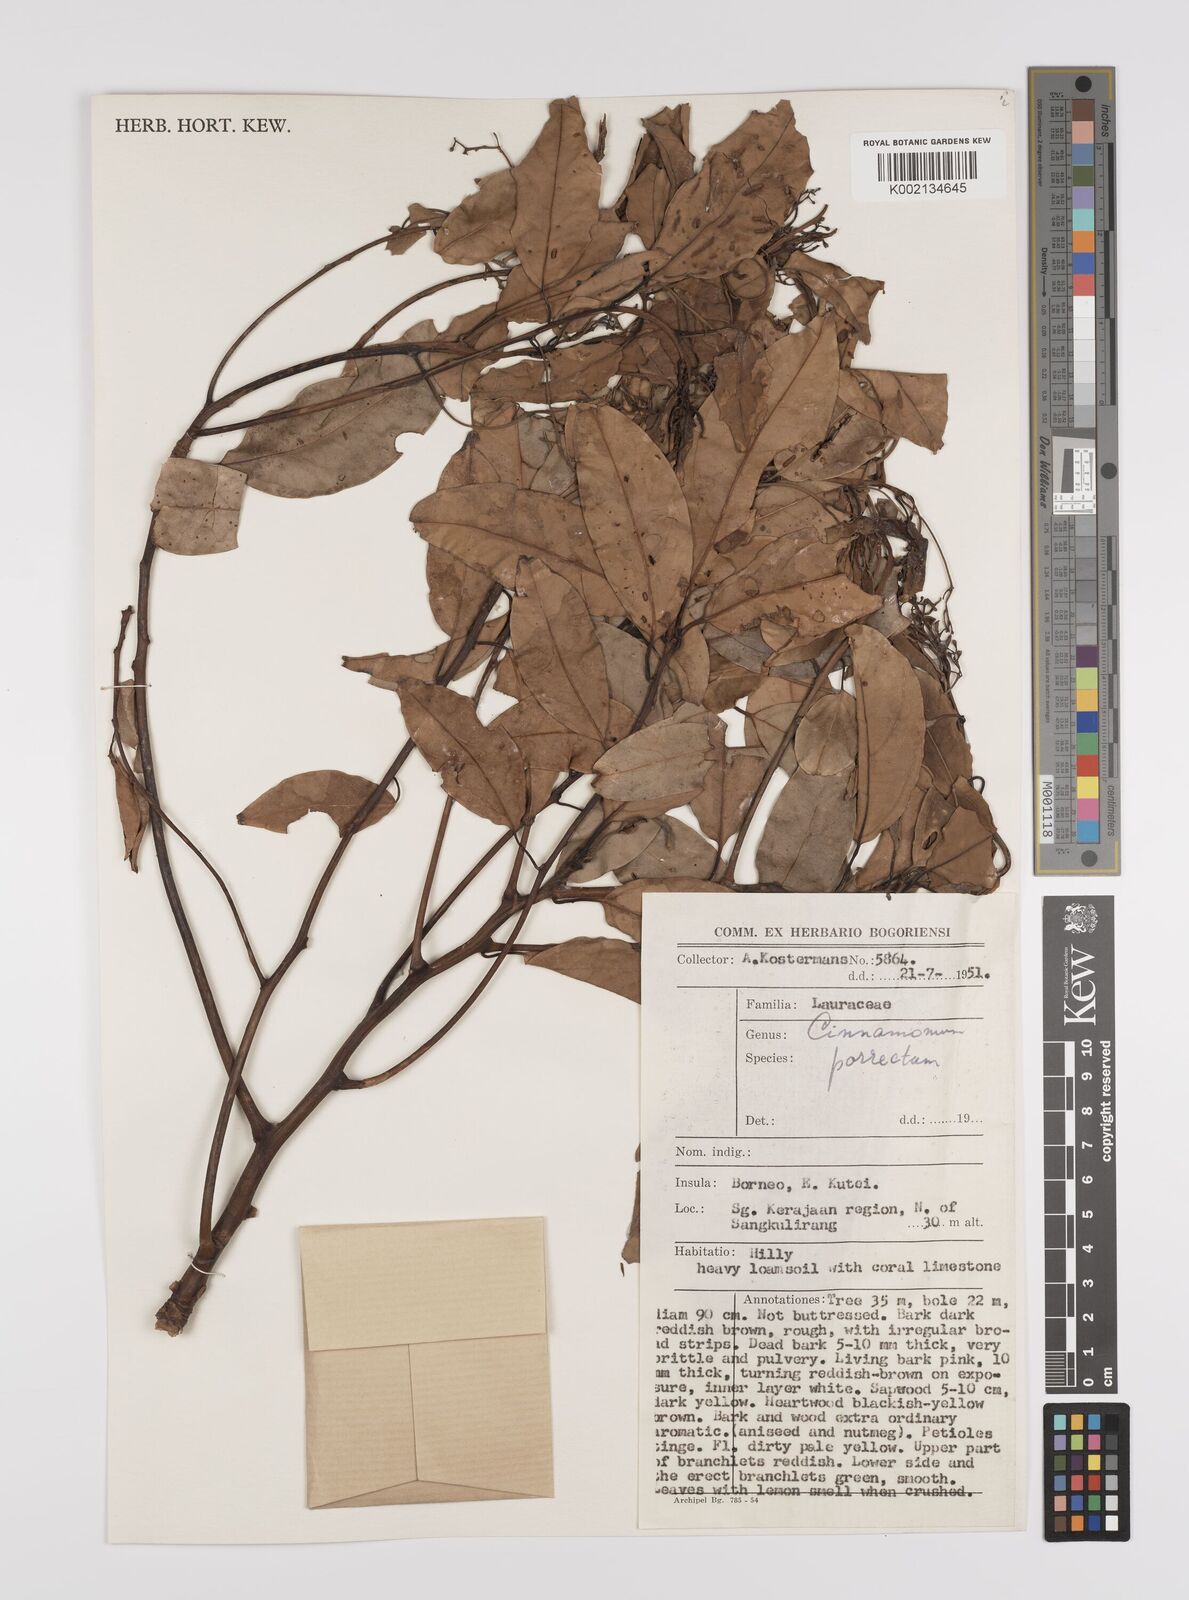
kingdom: Plantae
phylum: Tracheophyta
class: Magnoliopsida
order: Laurales
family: Lauraceae
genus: Cinnamomum
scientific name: Cinnamomum parthenoxylon
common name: Martaban camphor wood
